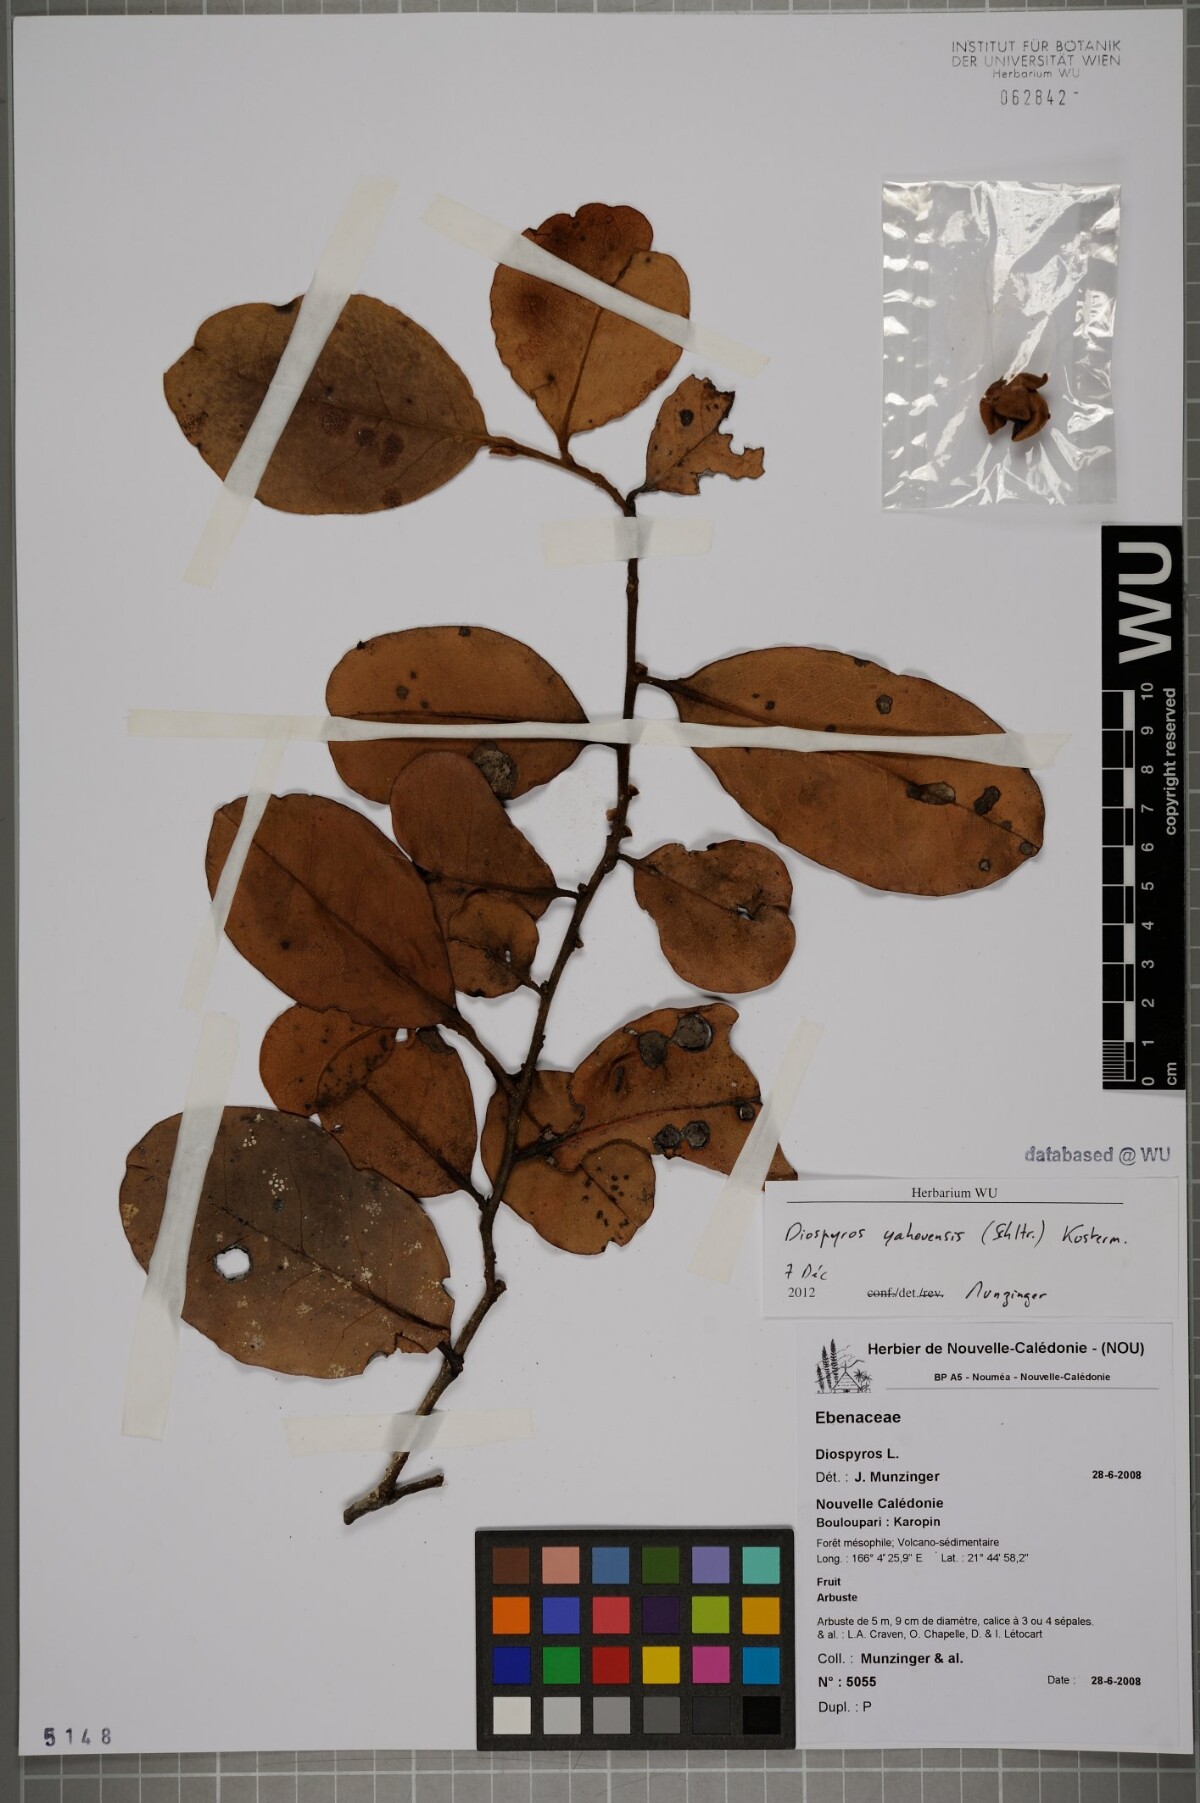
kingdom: Plantae
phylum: Tracheophyta
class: Magnoliopsida
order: Ericales
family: Ebenaceae
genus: Diospyros
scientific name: Diospyros
